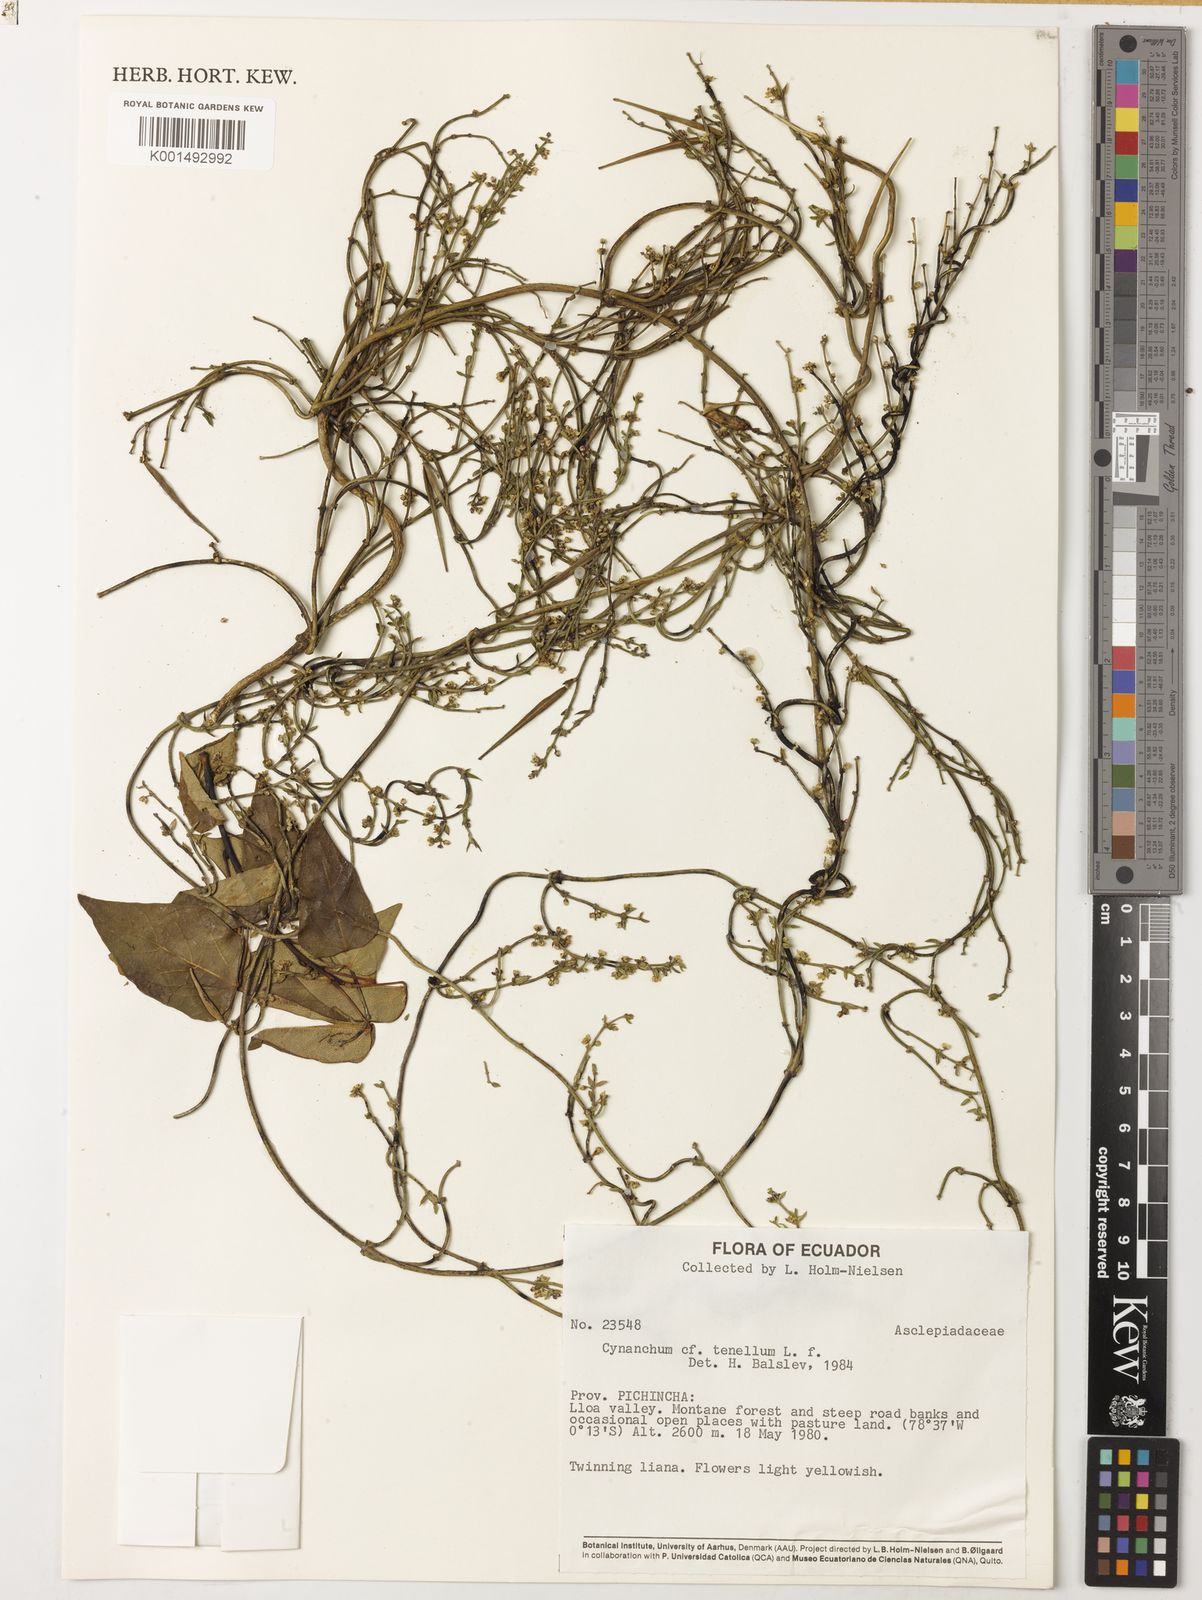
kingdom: Plantae
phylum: Tracheophyta
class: Magnoliopsida
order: Gentianales
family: Apocynaceae
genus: Scyphostelma
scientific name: Scyphostelma tenellum
